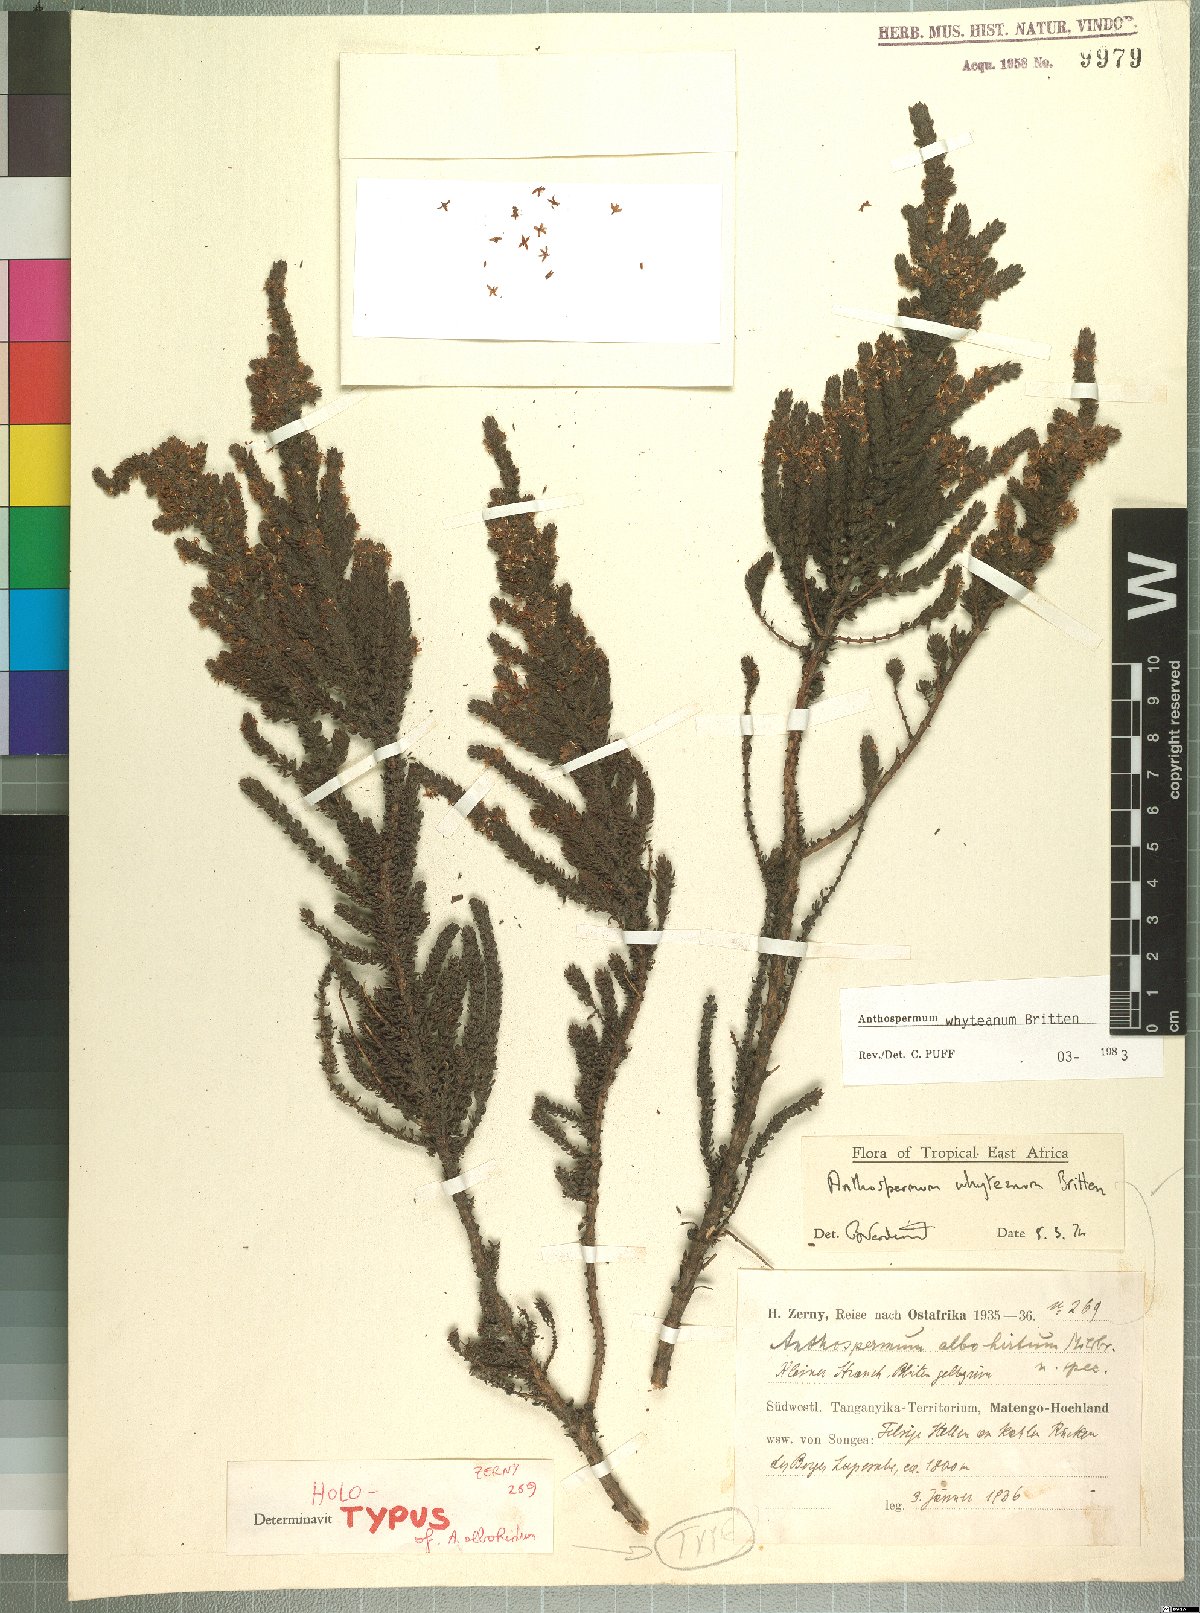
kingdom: Plantae
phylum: Tracheophyta
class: Magnoliopsida
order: Gentianales
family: Rubiaceae
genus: Anthospermum
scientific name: Anthospermum whyteanum
